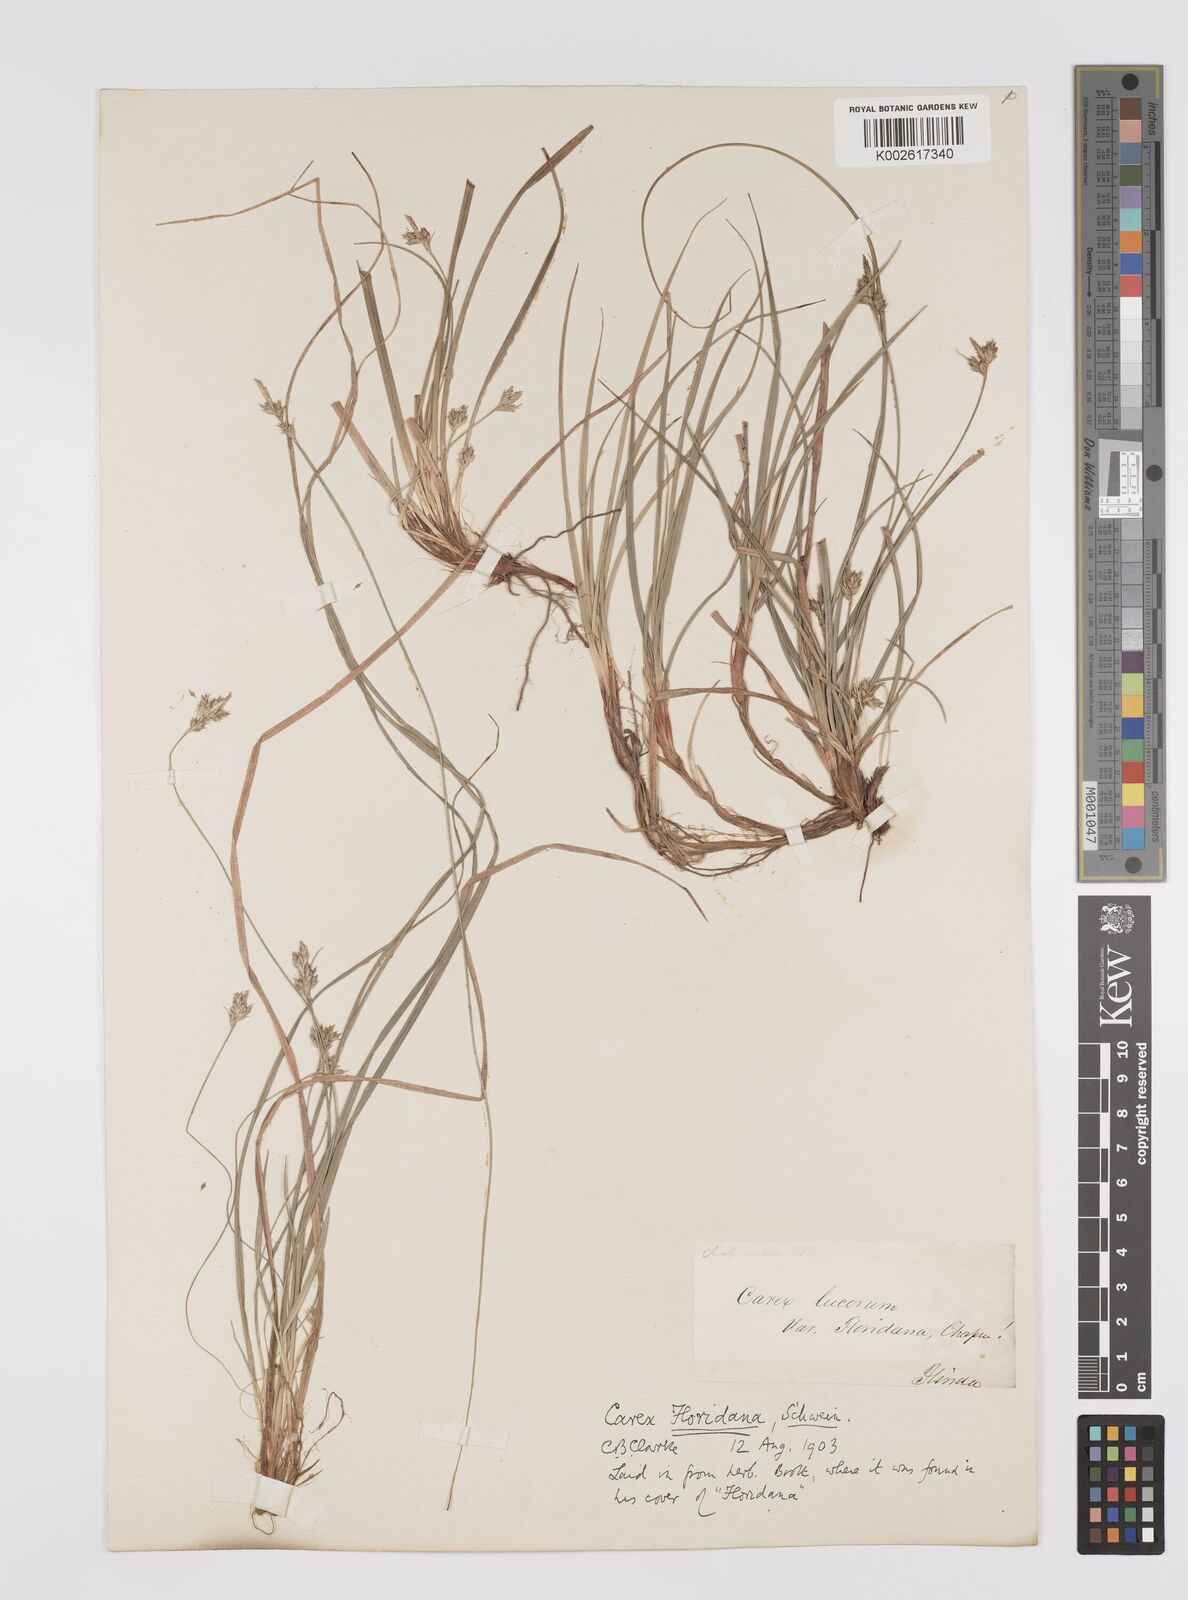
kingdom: Plantae
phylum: Tracheophyta
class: Liliopsida
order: Poales
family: Cyperaceae
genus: Carex
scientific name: Carex floridana
